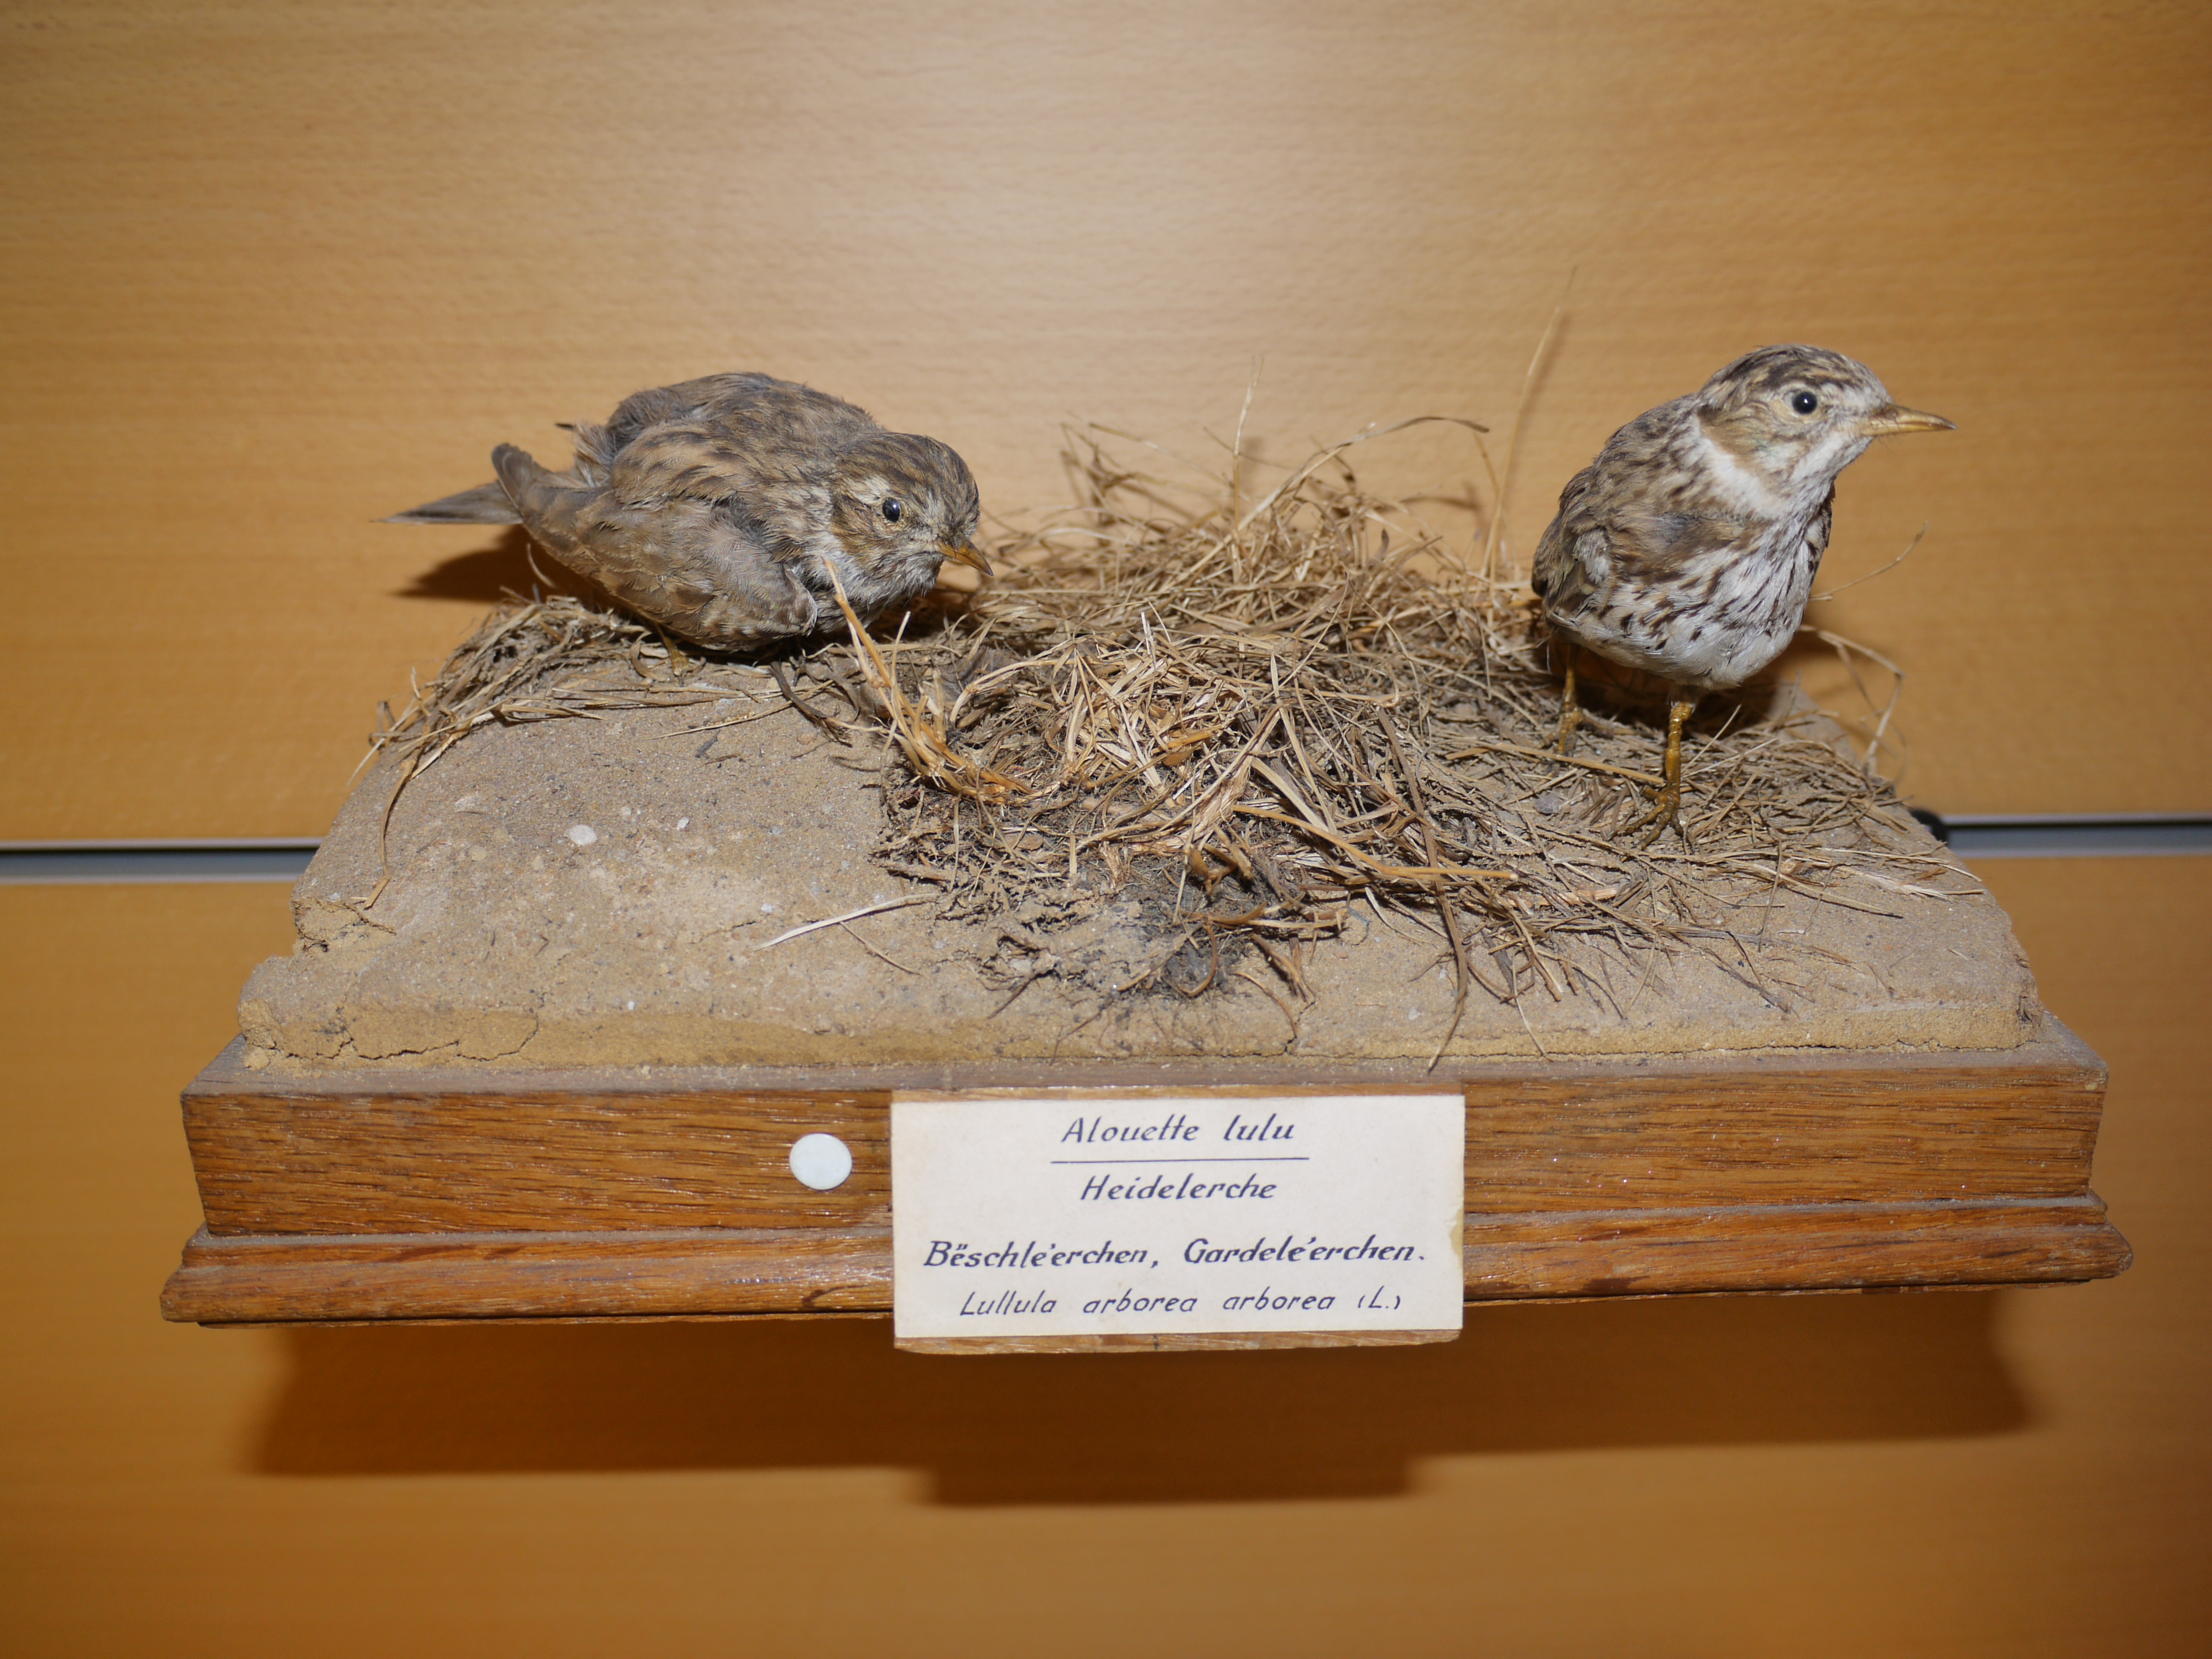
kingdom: Animalia
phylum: Chordata
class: Aves
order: Passeriformes
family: Alaudidae
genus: Lullula
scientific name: Lullula arborea
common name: Woodlark
